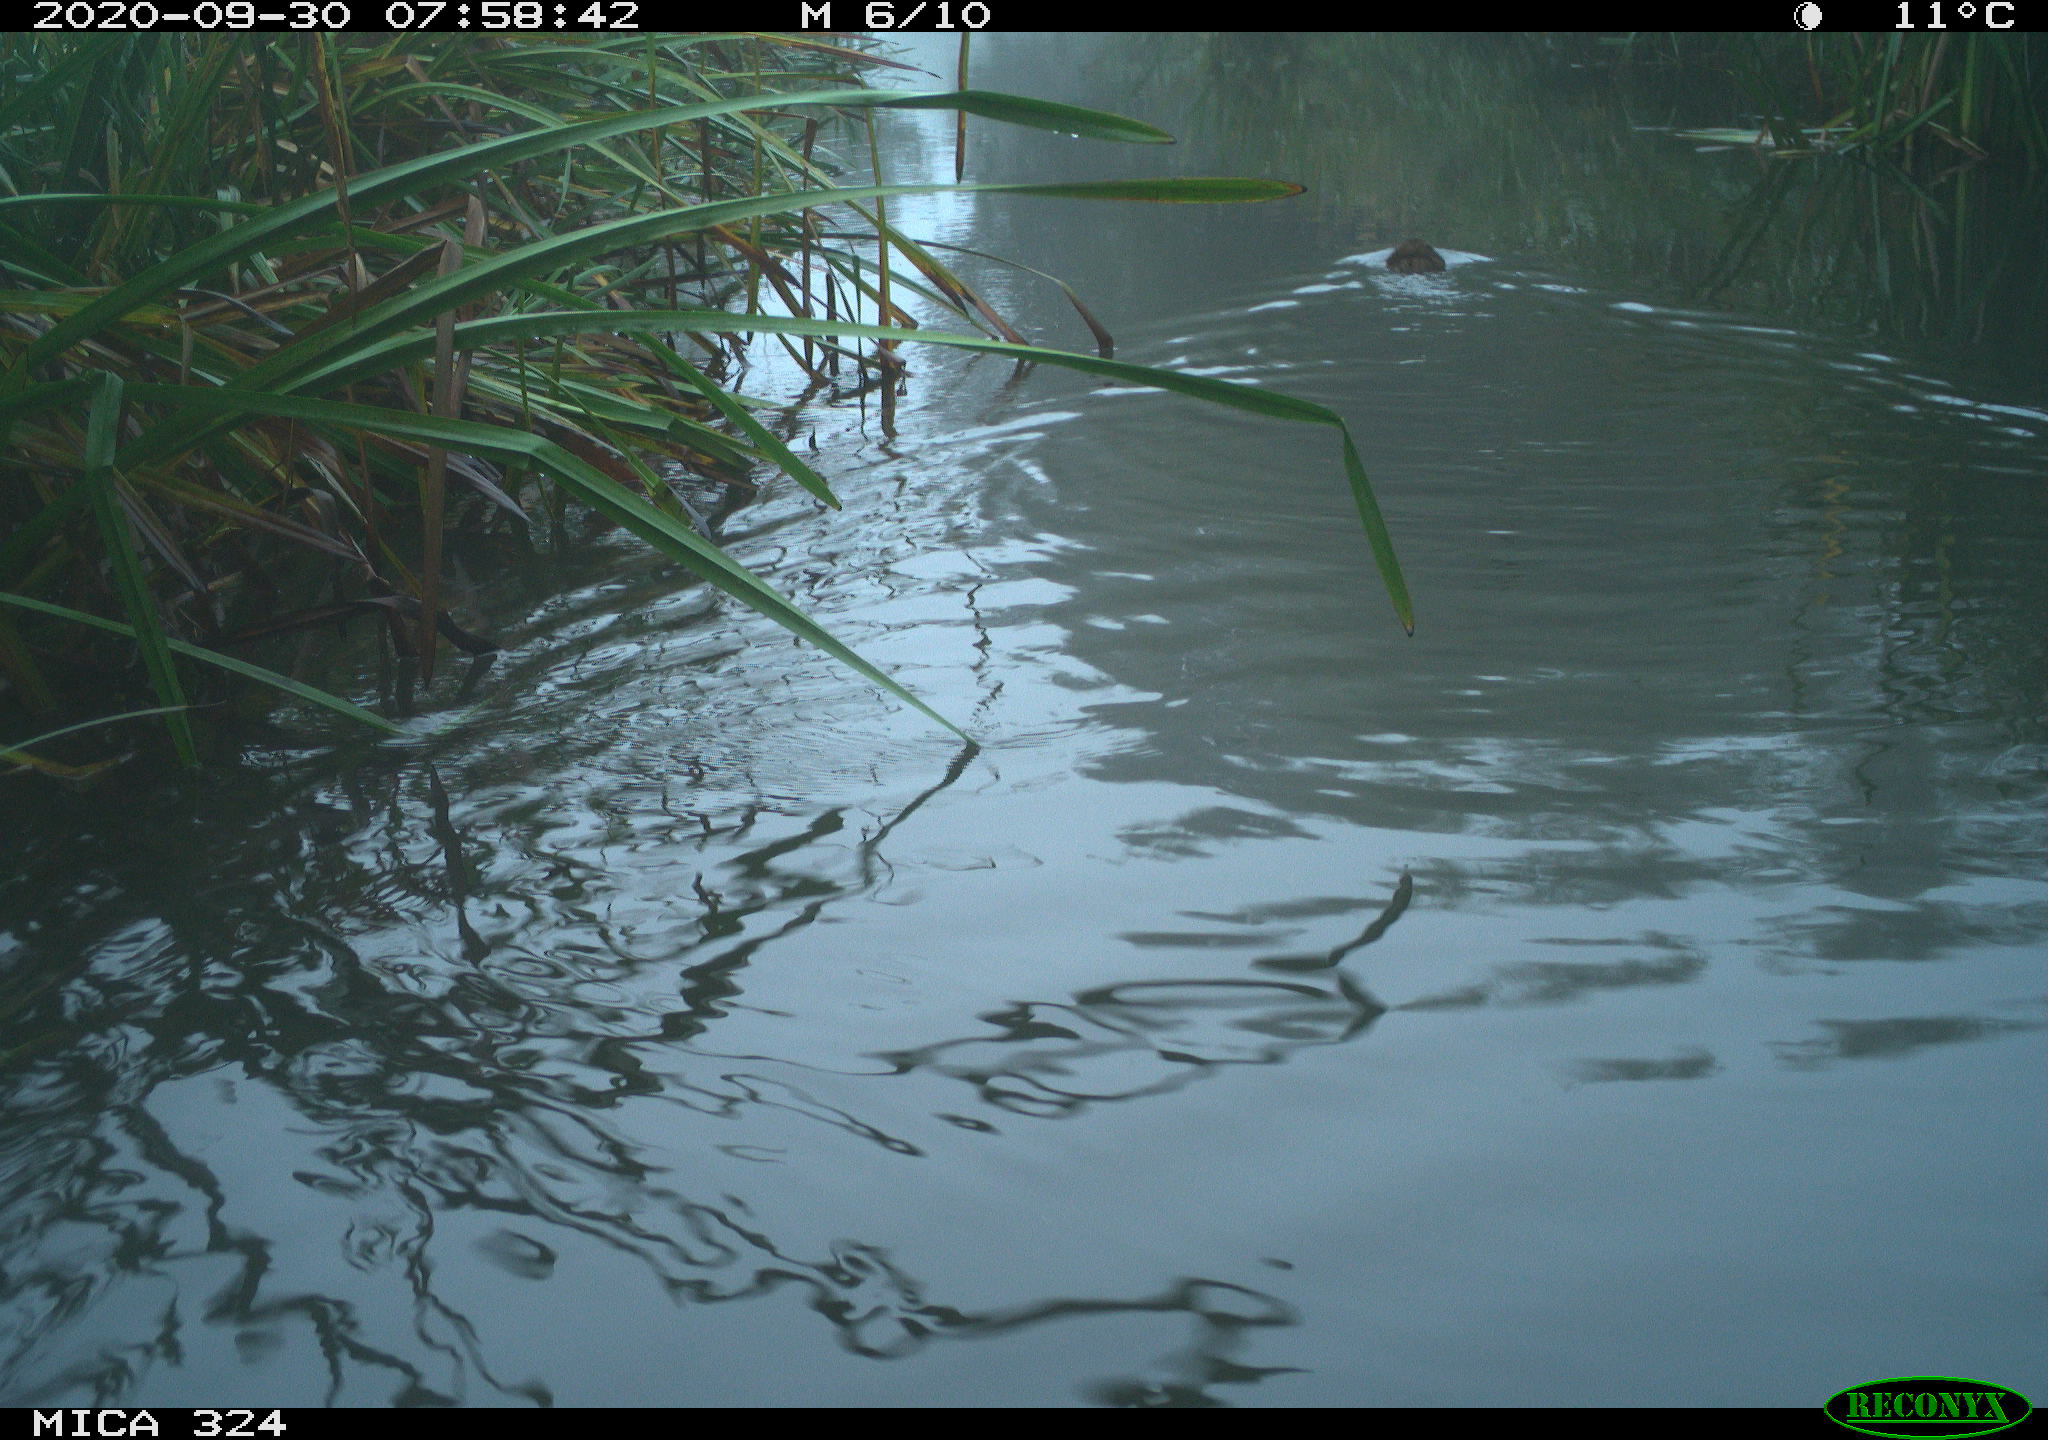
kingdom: Animalia
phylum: Chordata
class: Mammalia
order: Rodentia
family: Cricetidae
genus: Ondatra
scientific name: Ondatra zibethicus
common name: Muskrat
